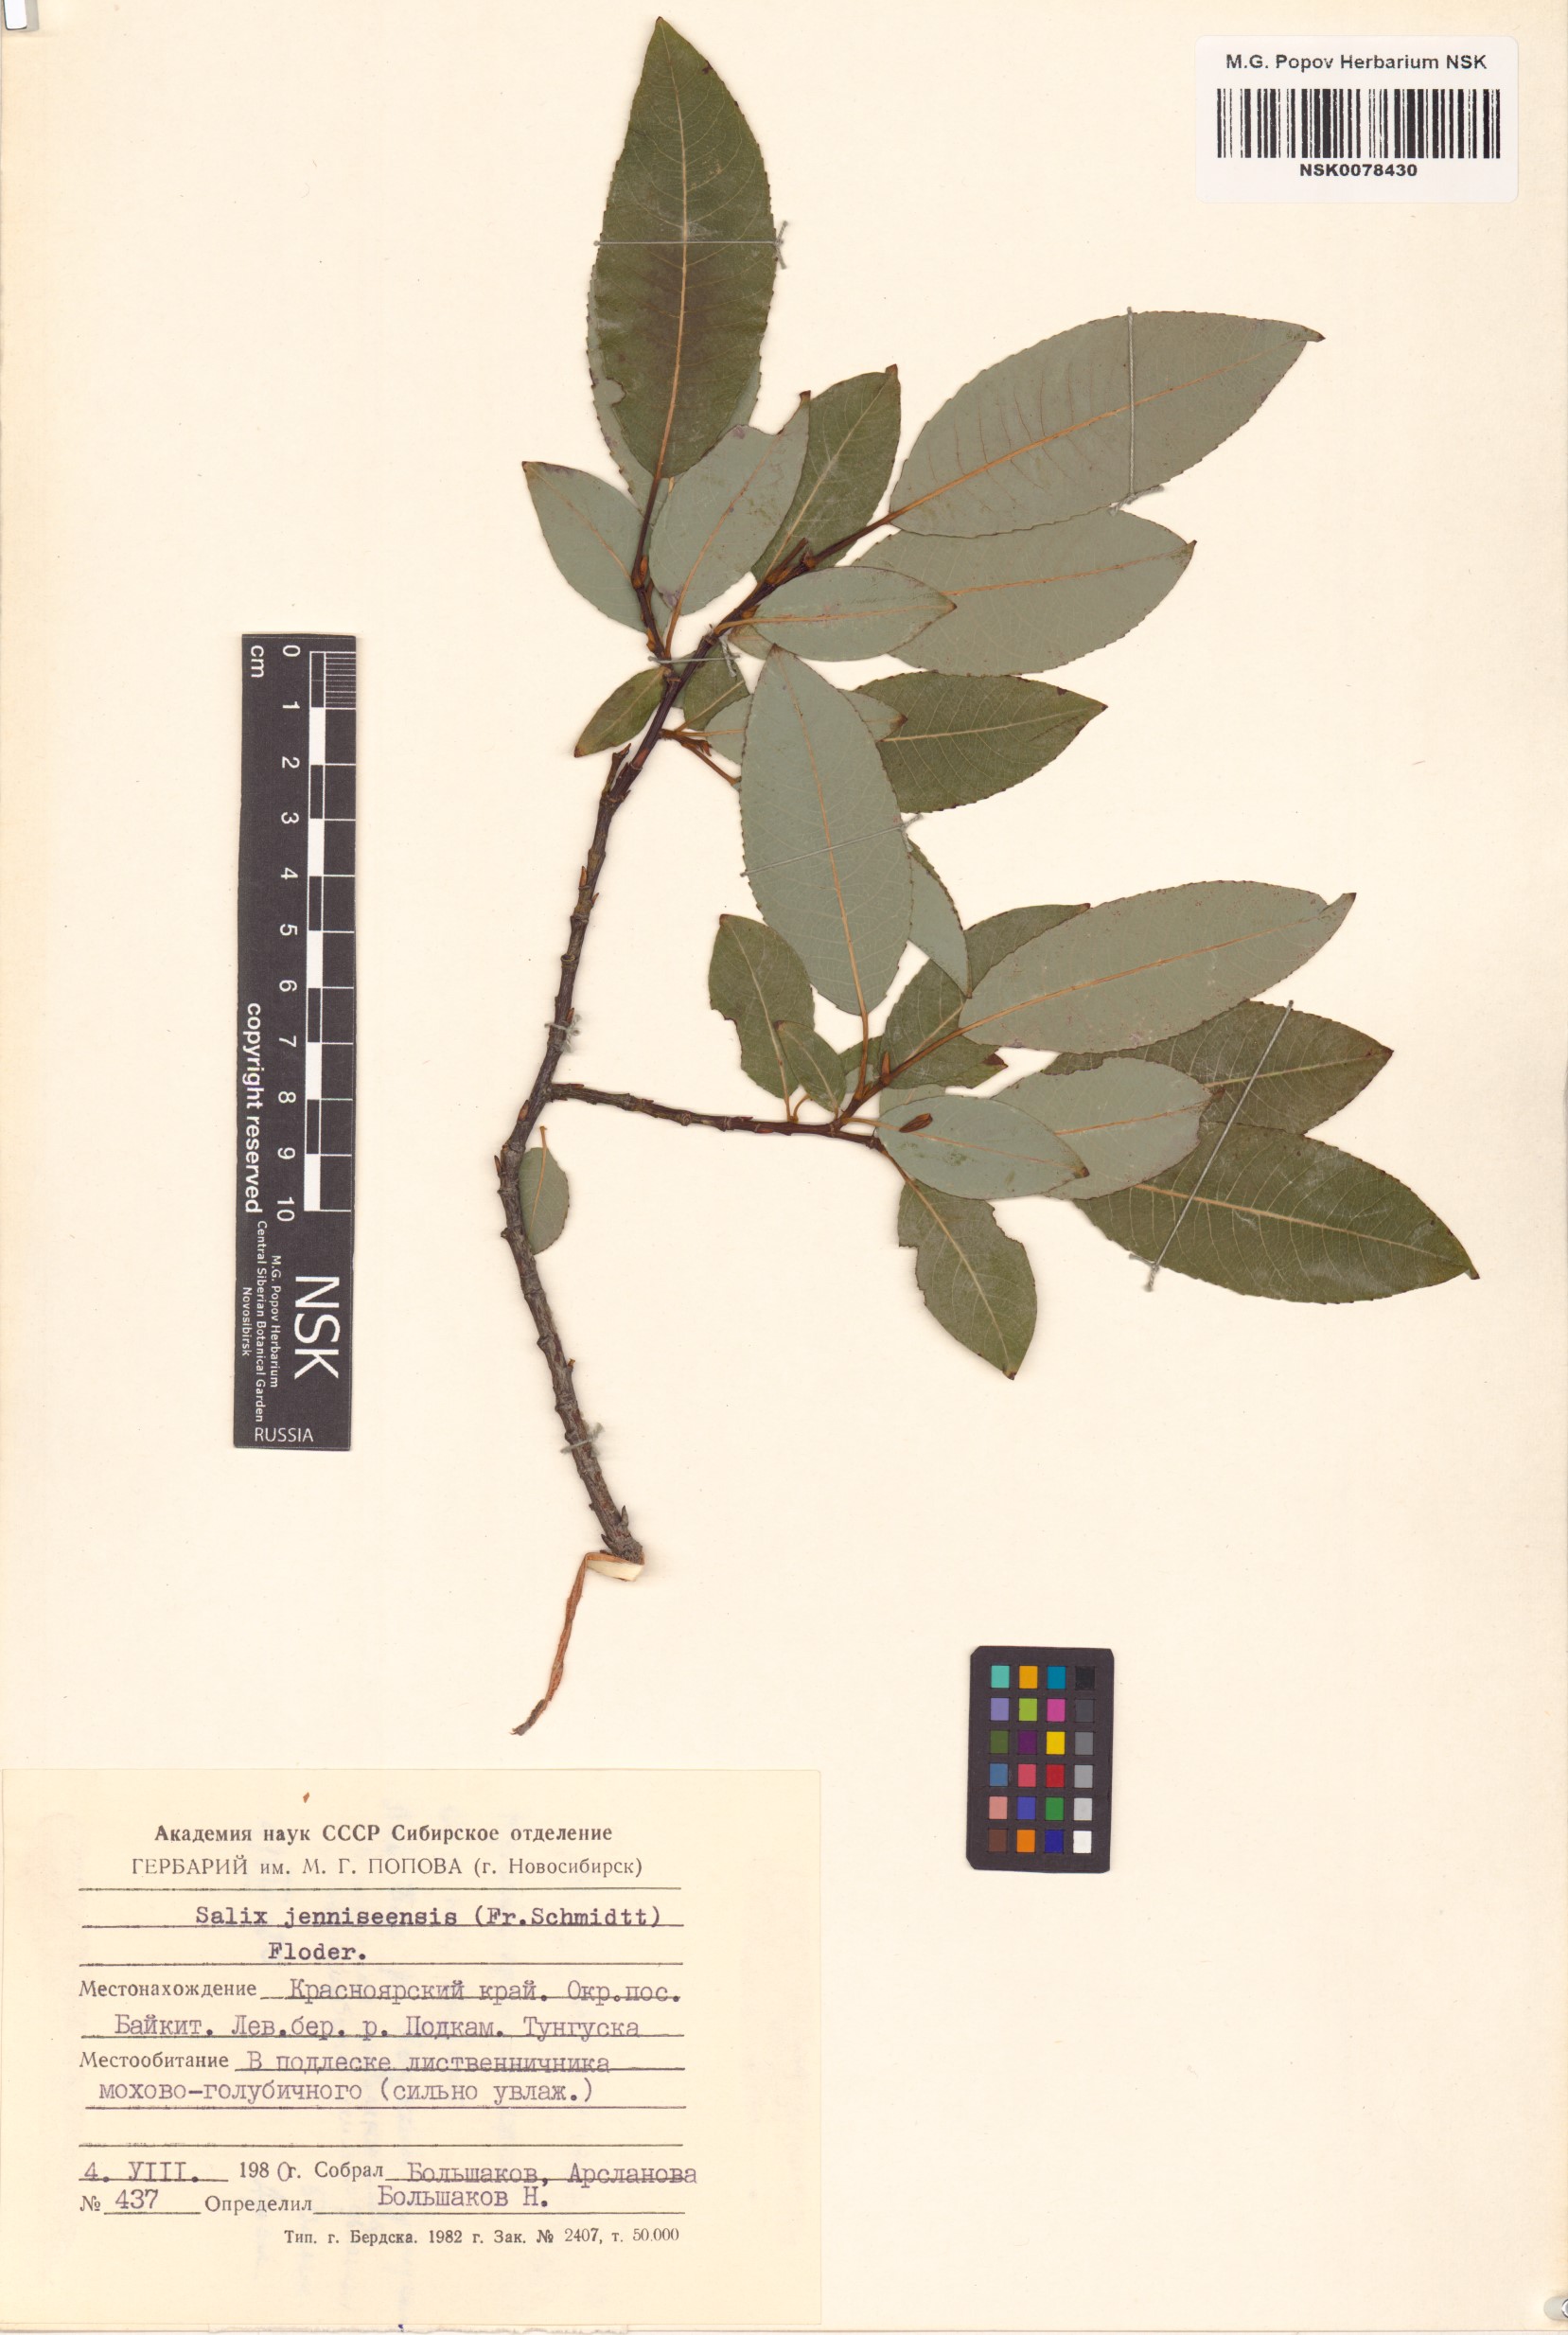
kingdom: Plantae
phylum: Tracheophyta
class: Magnoliopsida
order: Malpighiales
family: Salicaceae
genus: Salix
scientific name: Salix jenisseensis
